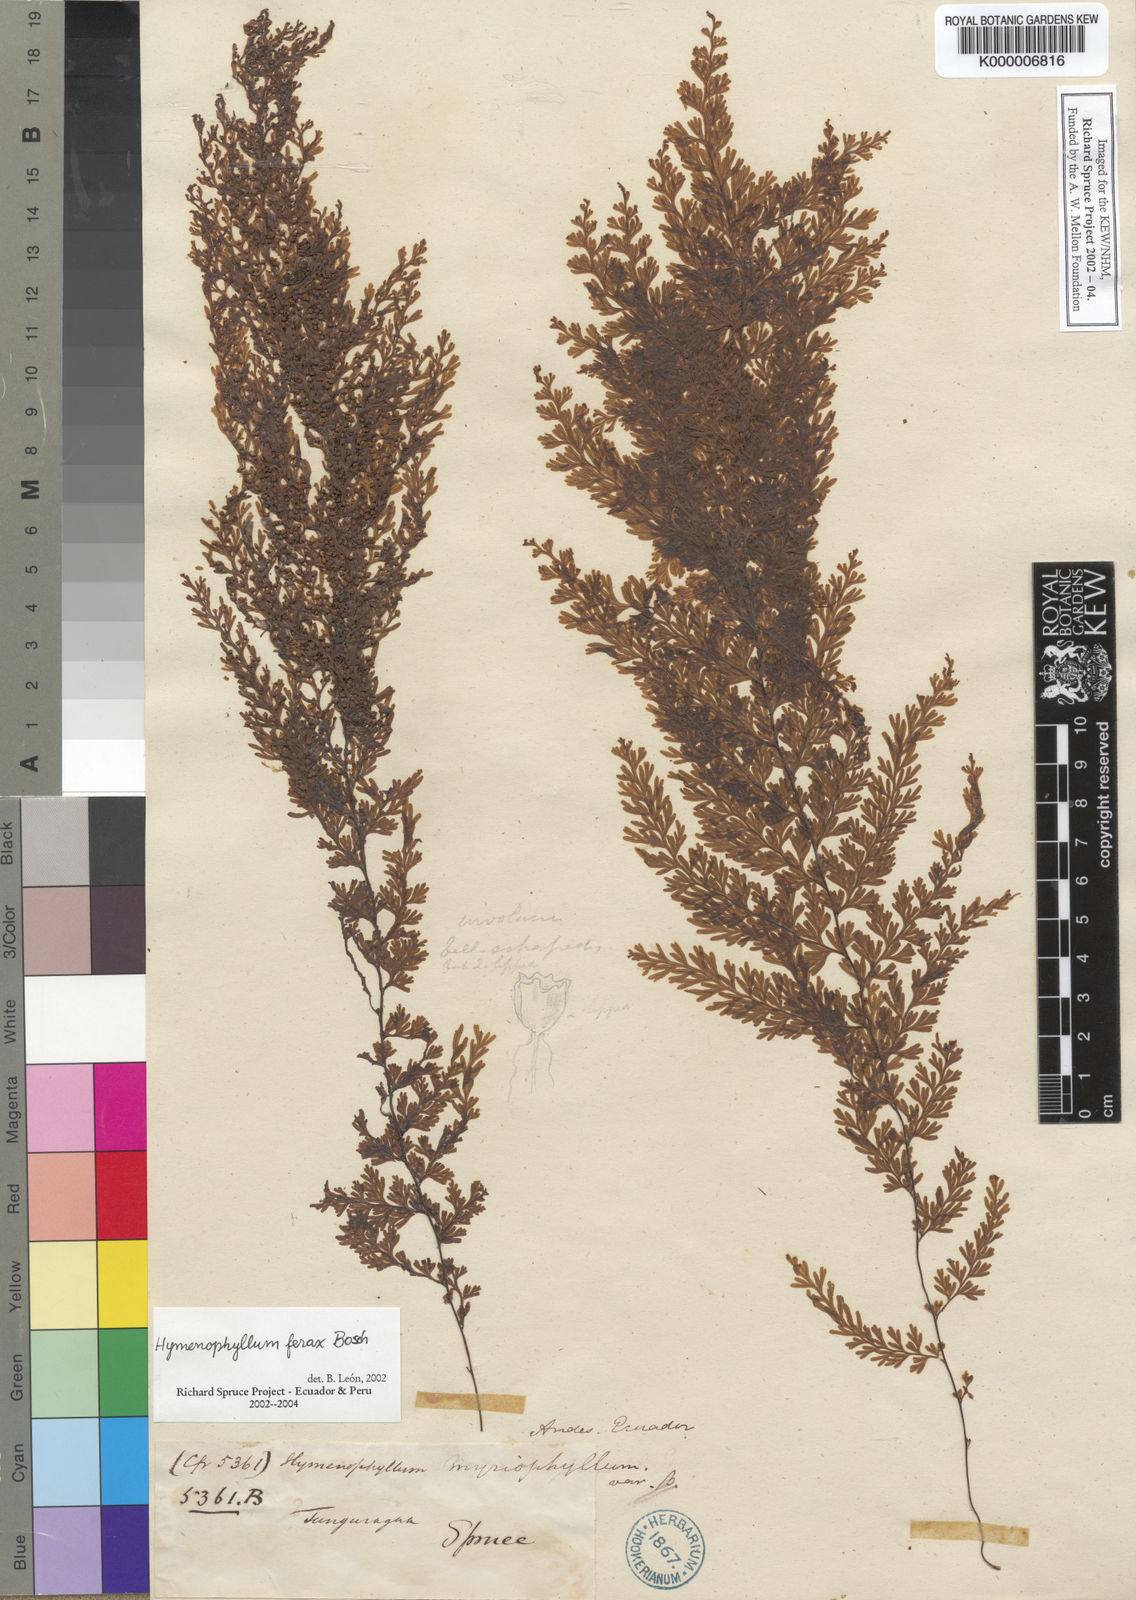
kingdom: Plantae
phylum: Tracheophyta
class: Polypodiopsida
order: Hymenophyllales
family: Hymenophyllaceae
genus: Hymenophyllum
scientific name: Hymenophyllum ferax
